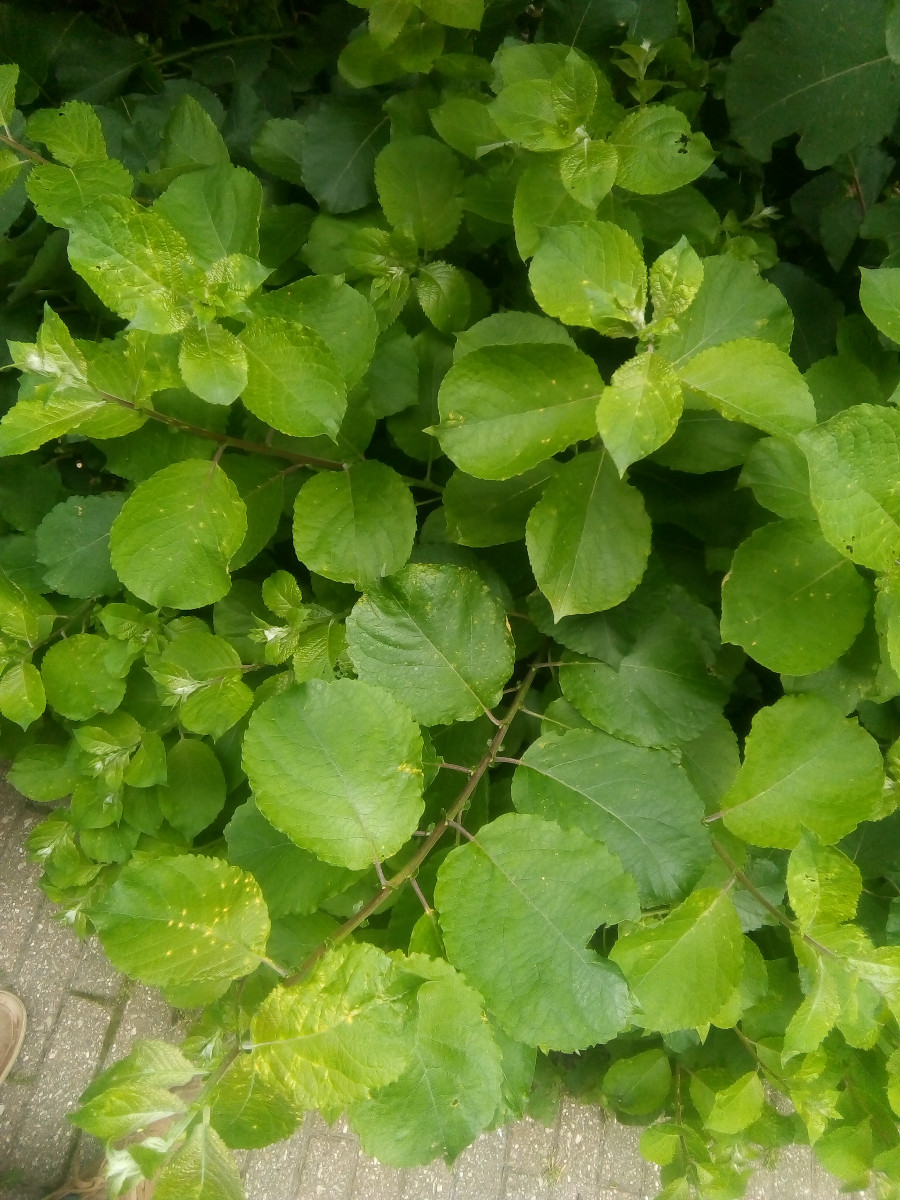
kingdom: Fungi
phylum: Basidiomycota
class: Pucciniomycetes
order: Pucciniales
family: Melampsoraceae
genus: Melampsora
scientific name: Melampsora epitea
